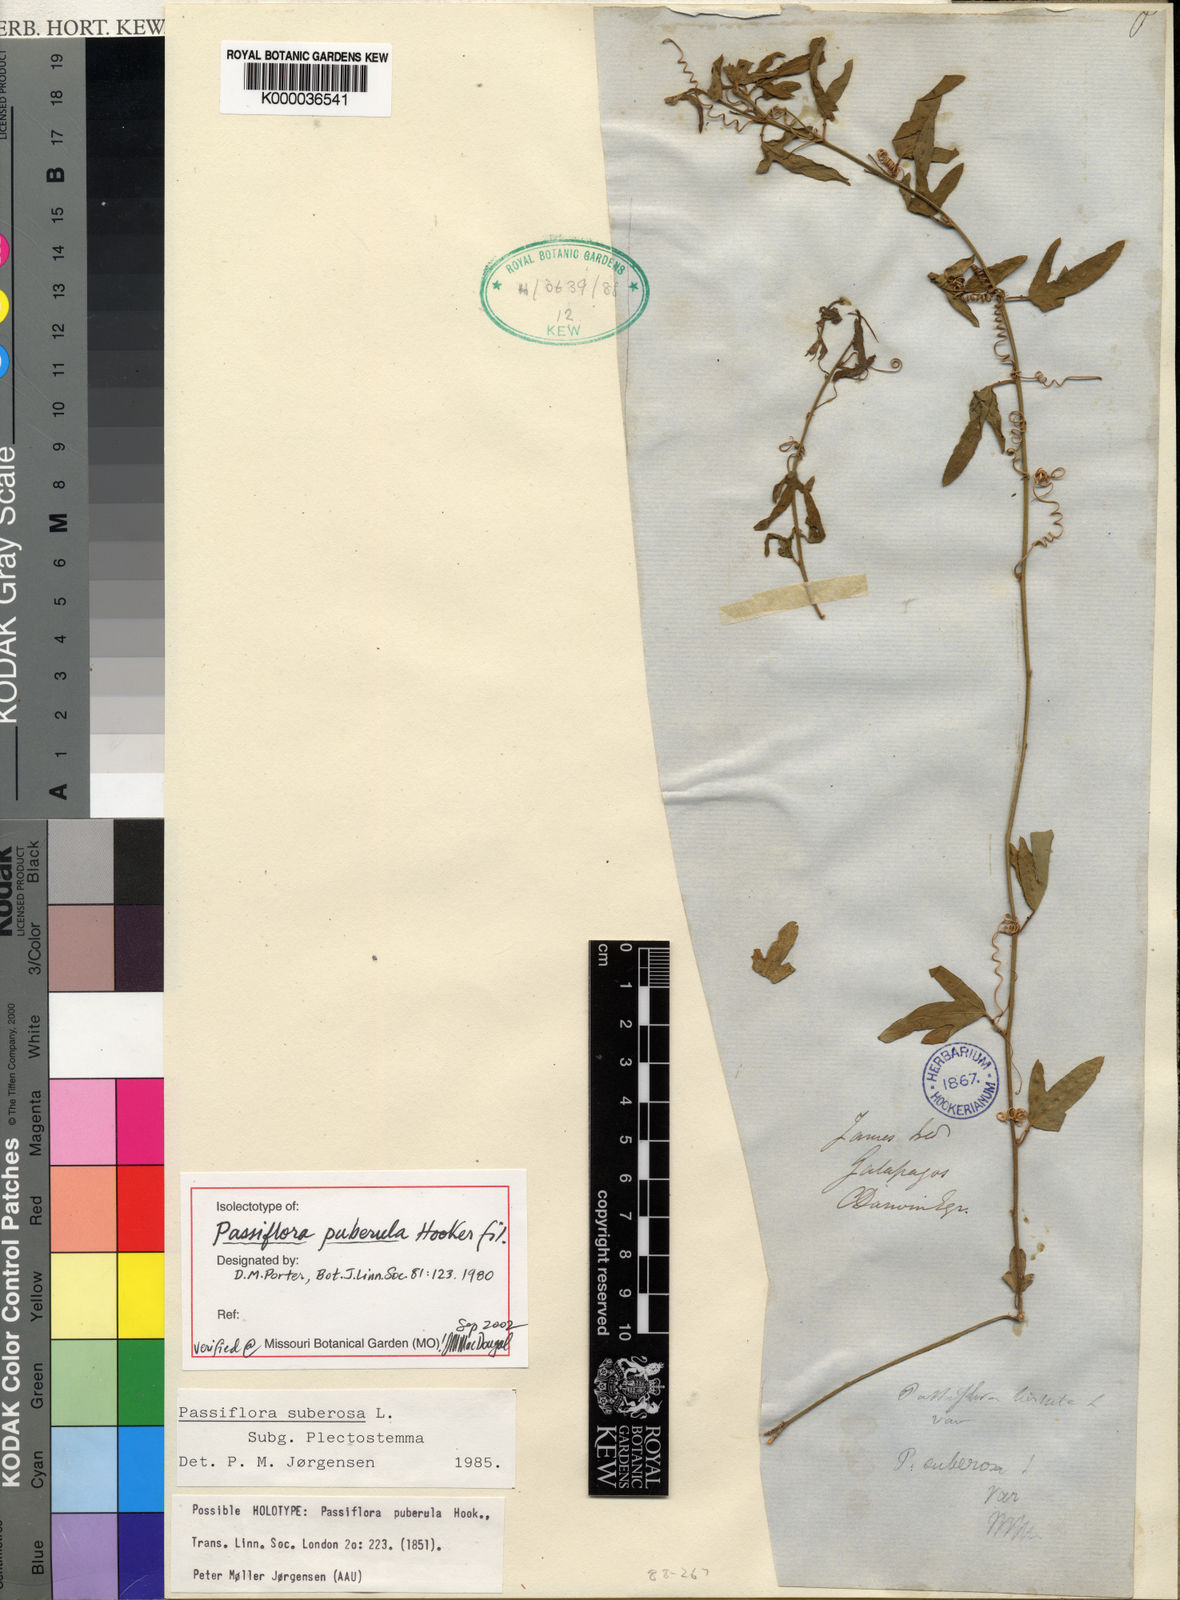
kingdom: Plantae
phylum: Tracheophyta
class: Magnoliopsida
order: Malpighiales
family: Passifloraceae
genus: Passiflora
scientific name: Passiflora suberosa
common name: Wild passionfruit
